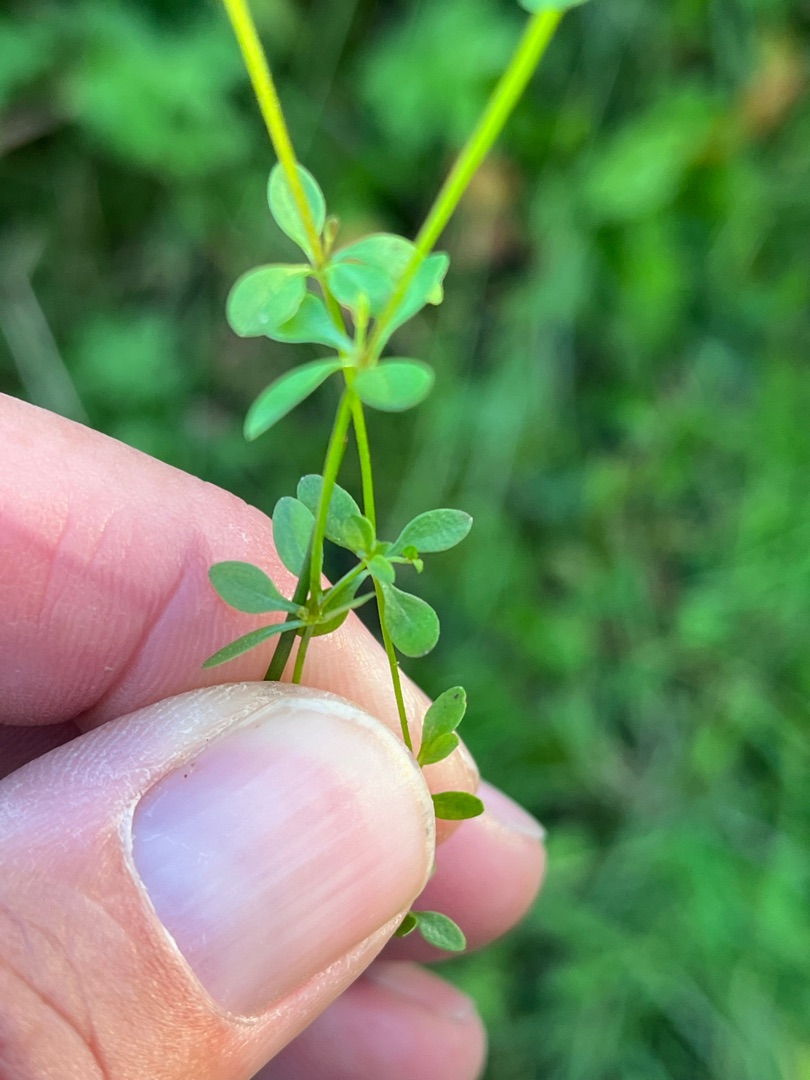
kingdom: Plantae
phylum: Tracheophyta
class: Magnoliopsida
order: Gentianales
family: Rubiaceae
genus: Galium
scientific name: Galium palustre
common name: Kær-snerre
